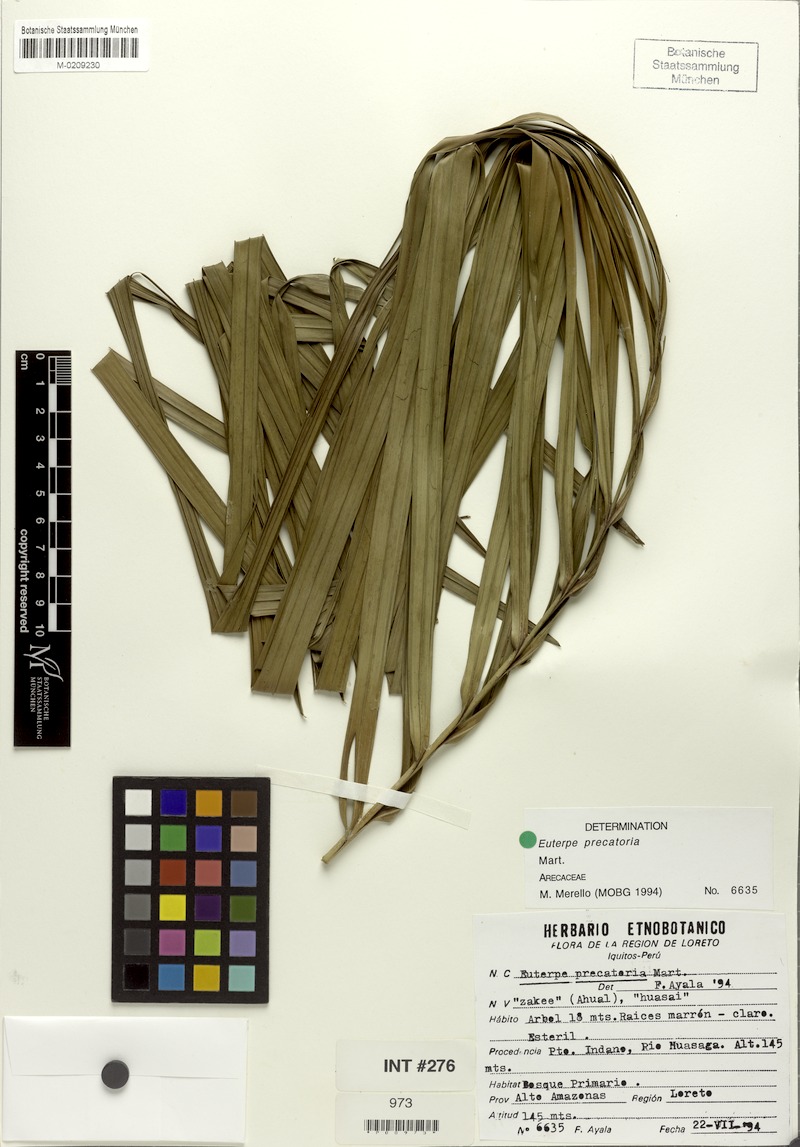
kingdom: Plantae
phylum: Tracheophyta
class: Liliopsida
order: Arecales
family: Arecaceae
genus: Euterpe
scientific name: Euterpe precatoria
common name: Mountain-cabbage
